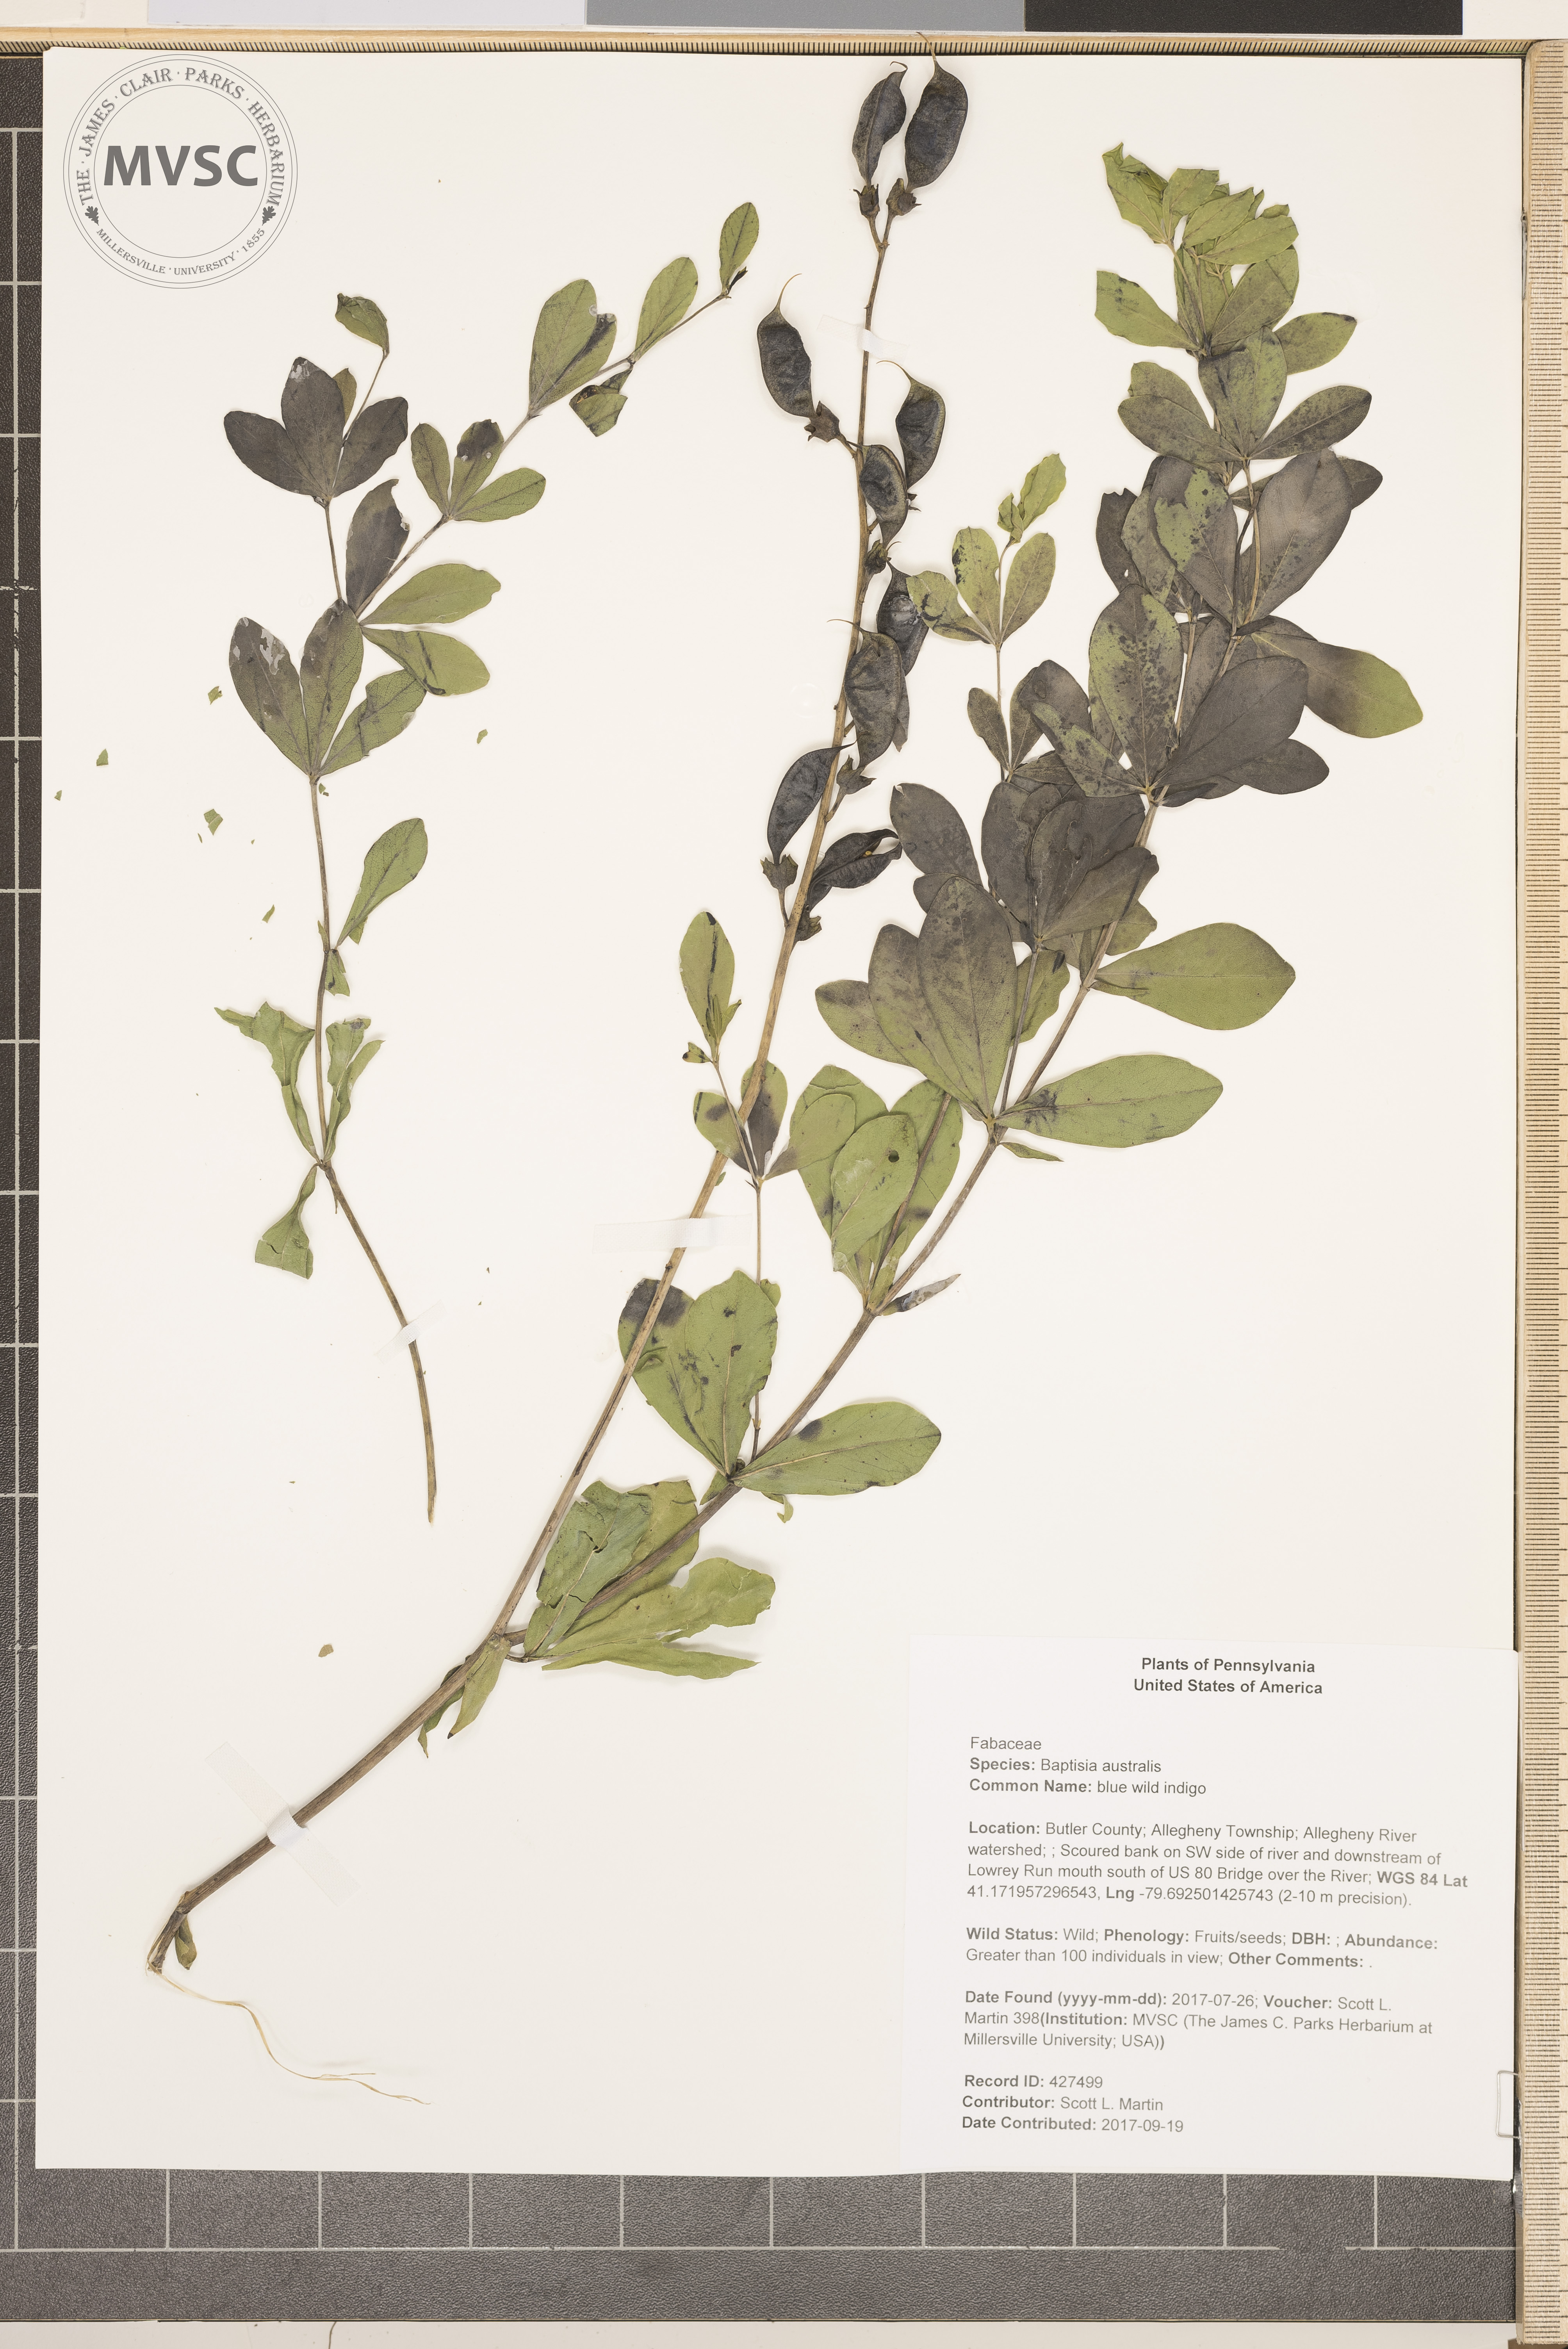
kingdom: Plantae
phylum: Tracheophyta
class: Magnoliopsida
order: Fabales
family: Fabaceae
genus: Baptisia
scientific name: Baptisia australis
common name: blue wild indigo
